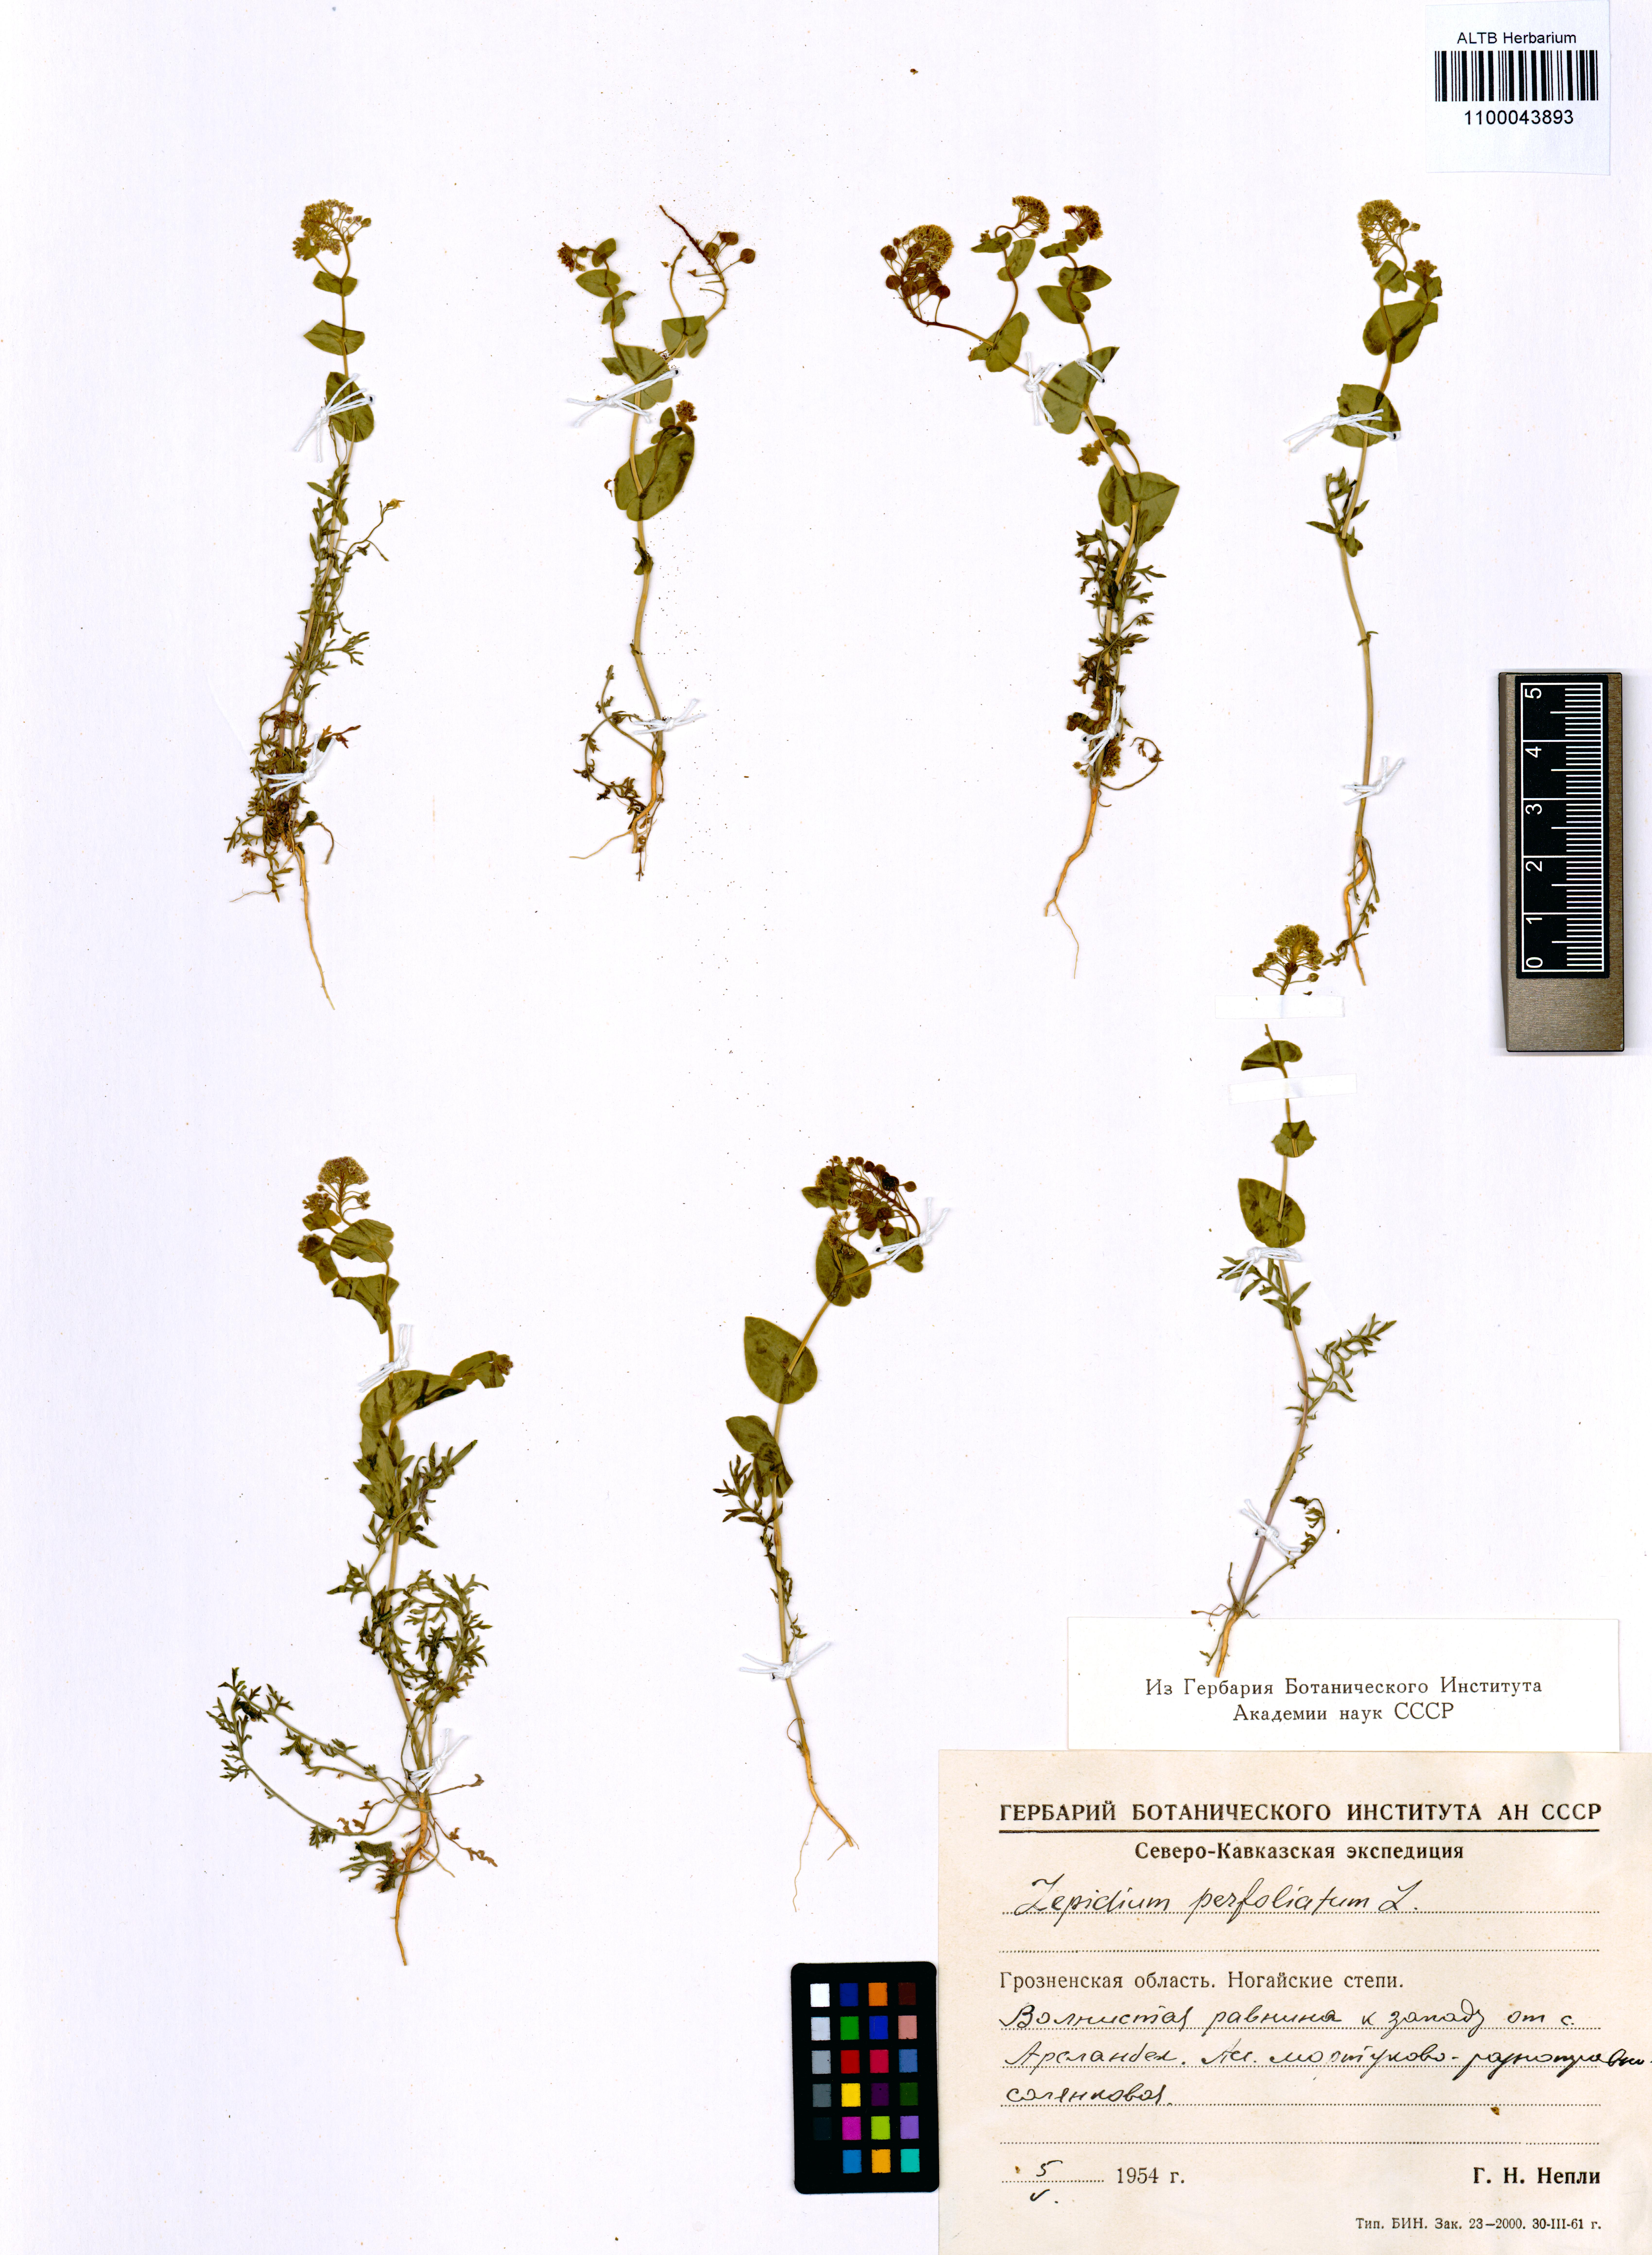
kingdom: Plantae
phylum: Tracheophyta
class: Magnoliopsida
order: Brassicales
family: Brassicaceae
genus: Lepidium
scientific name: Lepidium perfoliatum
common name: Perfoliate pepperwort
